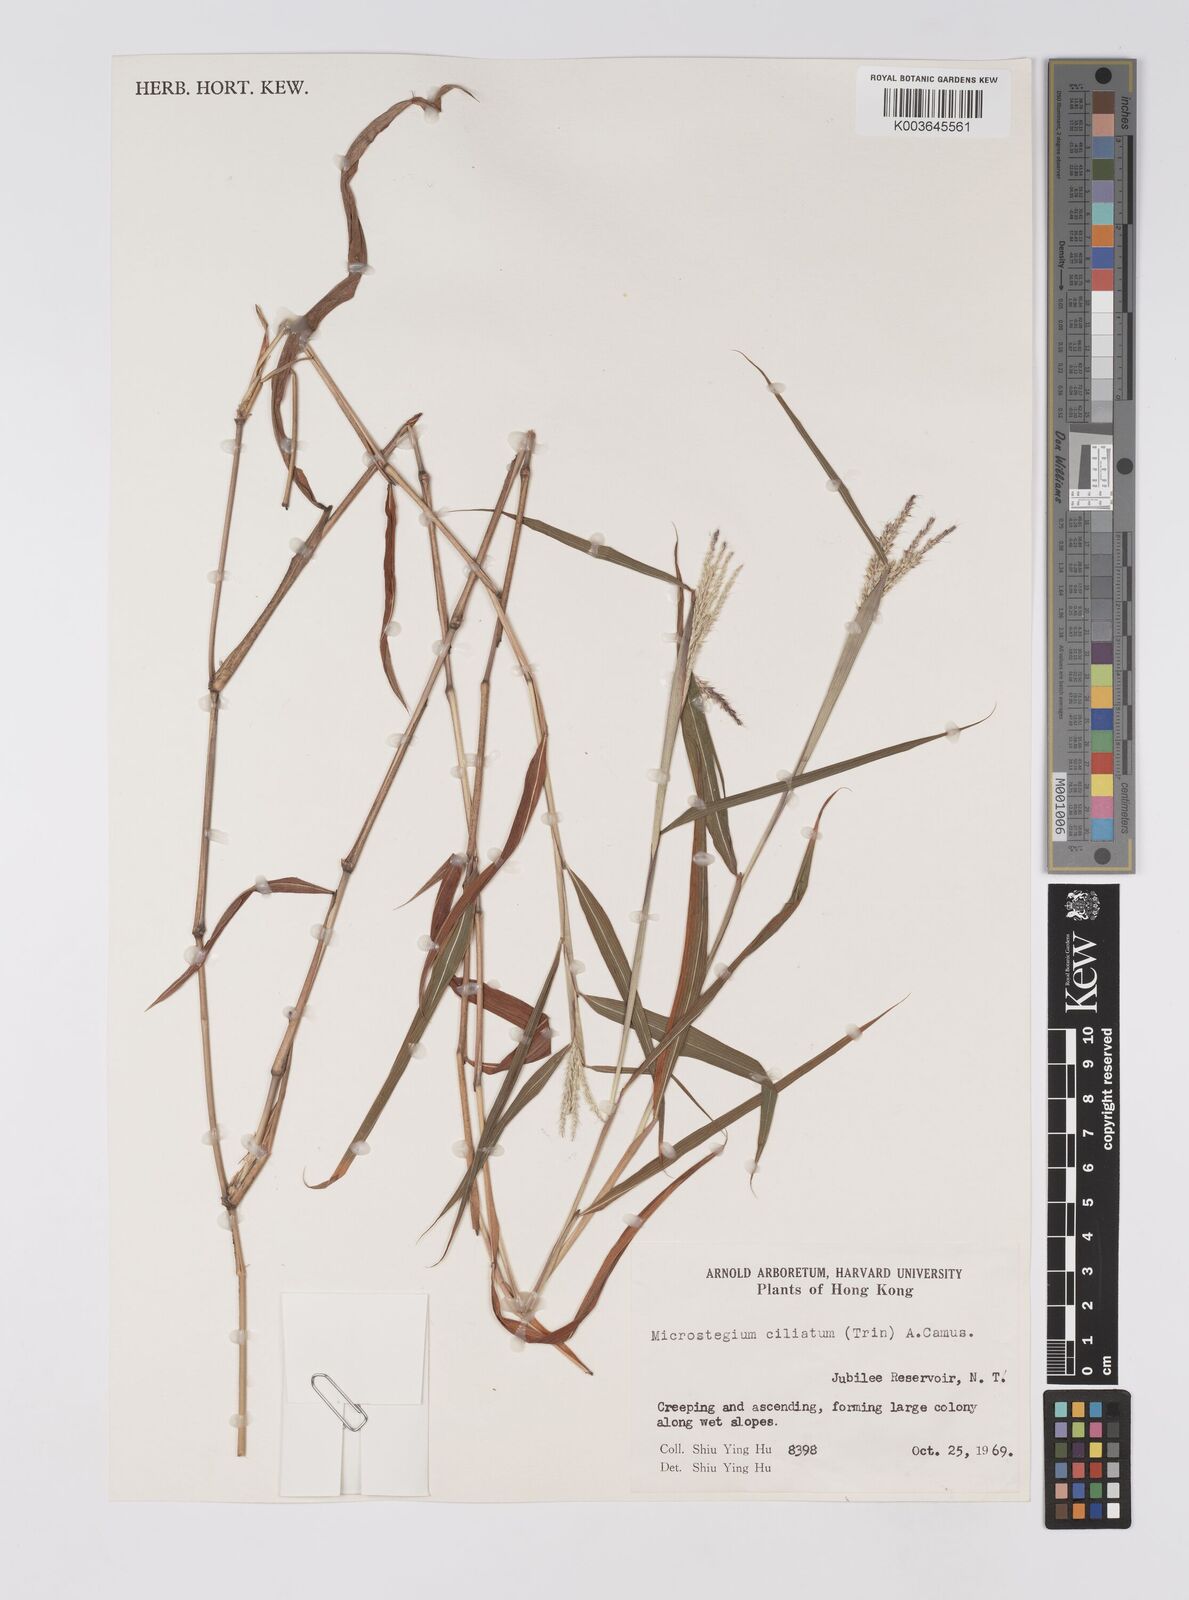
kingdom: Plantae
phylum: Tracheophyta
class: Liliopsida
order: Poales
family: Poaceae
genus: Microstegium
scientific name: Microstegium fasciculatum
